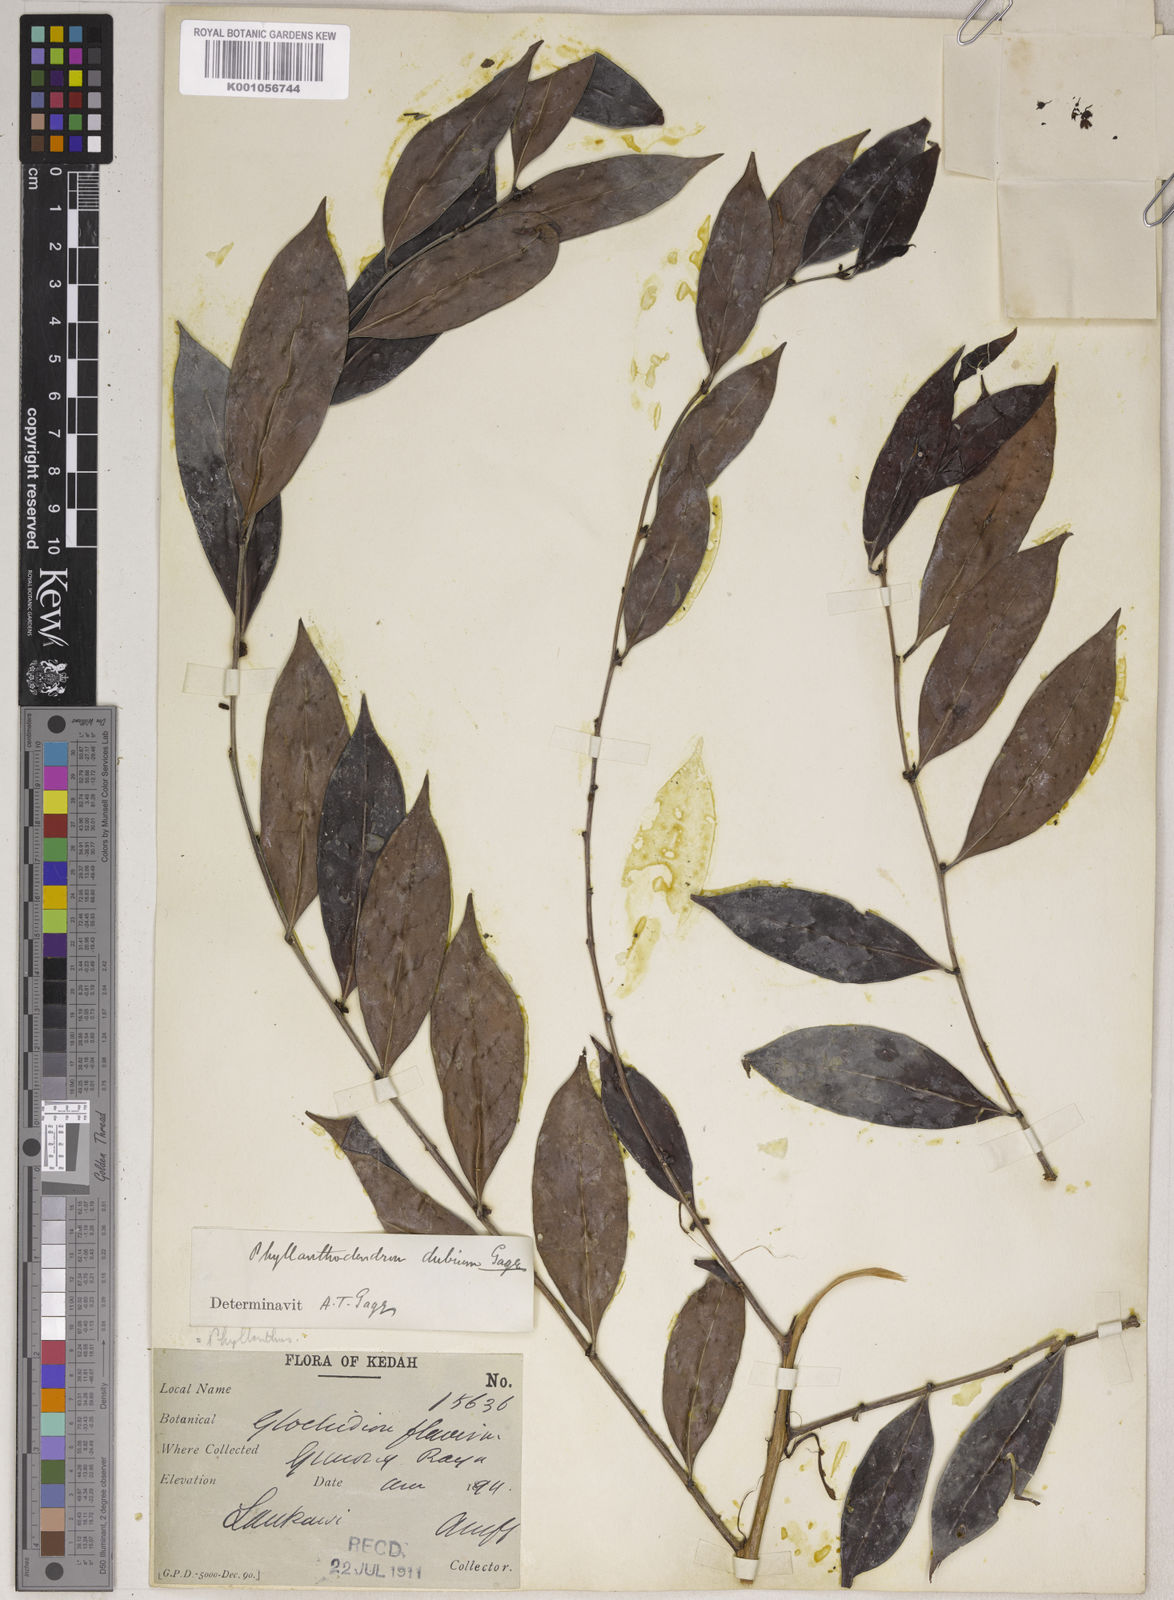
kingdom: Plantae
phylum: Tracheophyta
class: Magnoliopsida
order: Malpighiales
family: Phyllanthaceae
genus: Phyllanthus
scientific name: Phyllanthus roseus
